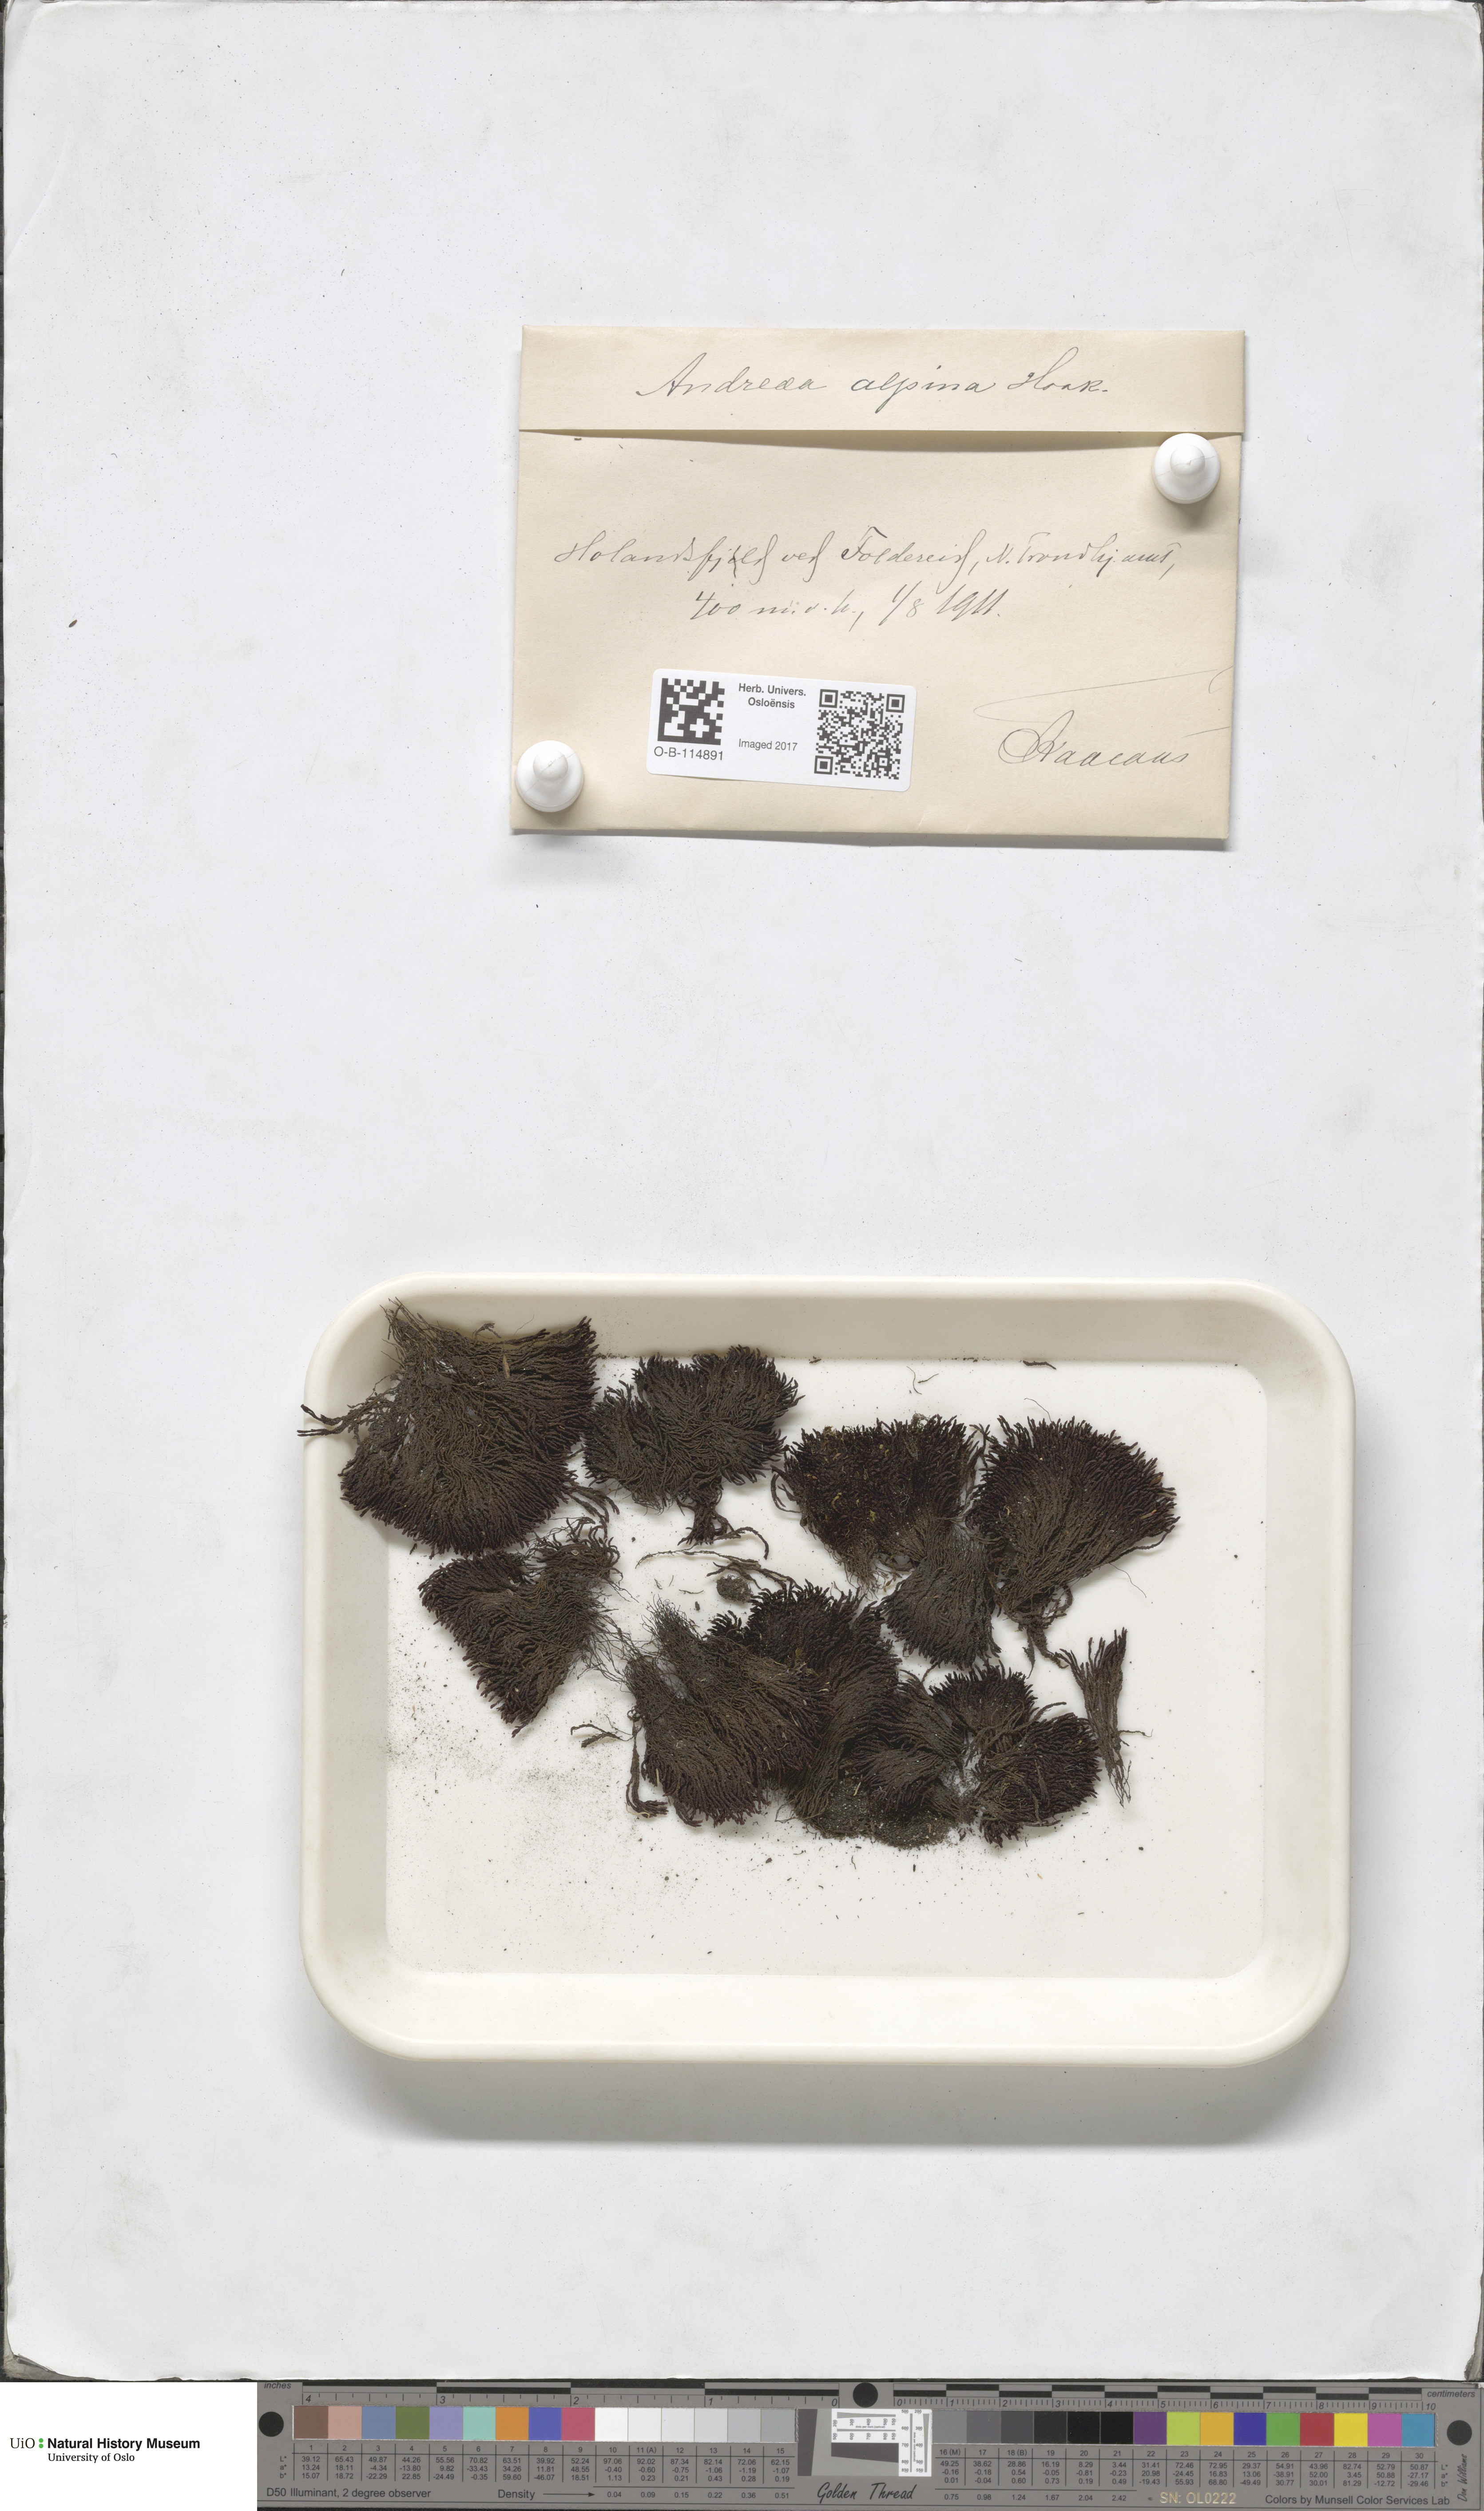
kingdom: Plantae
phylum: Bryophyta
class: Andreaeopsida
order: Andreaeales
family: Andreaeaceae
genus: Andreaea
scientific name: Andreaea hookeri
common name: Alpine rock-moss
